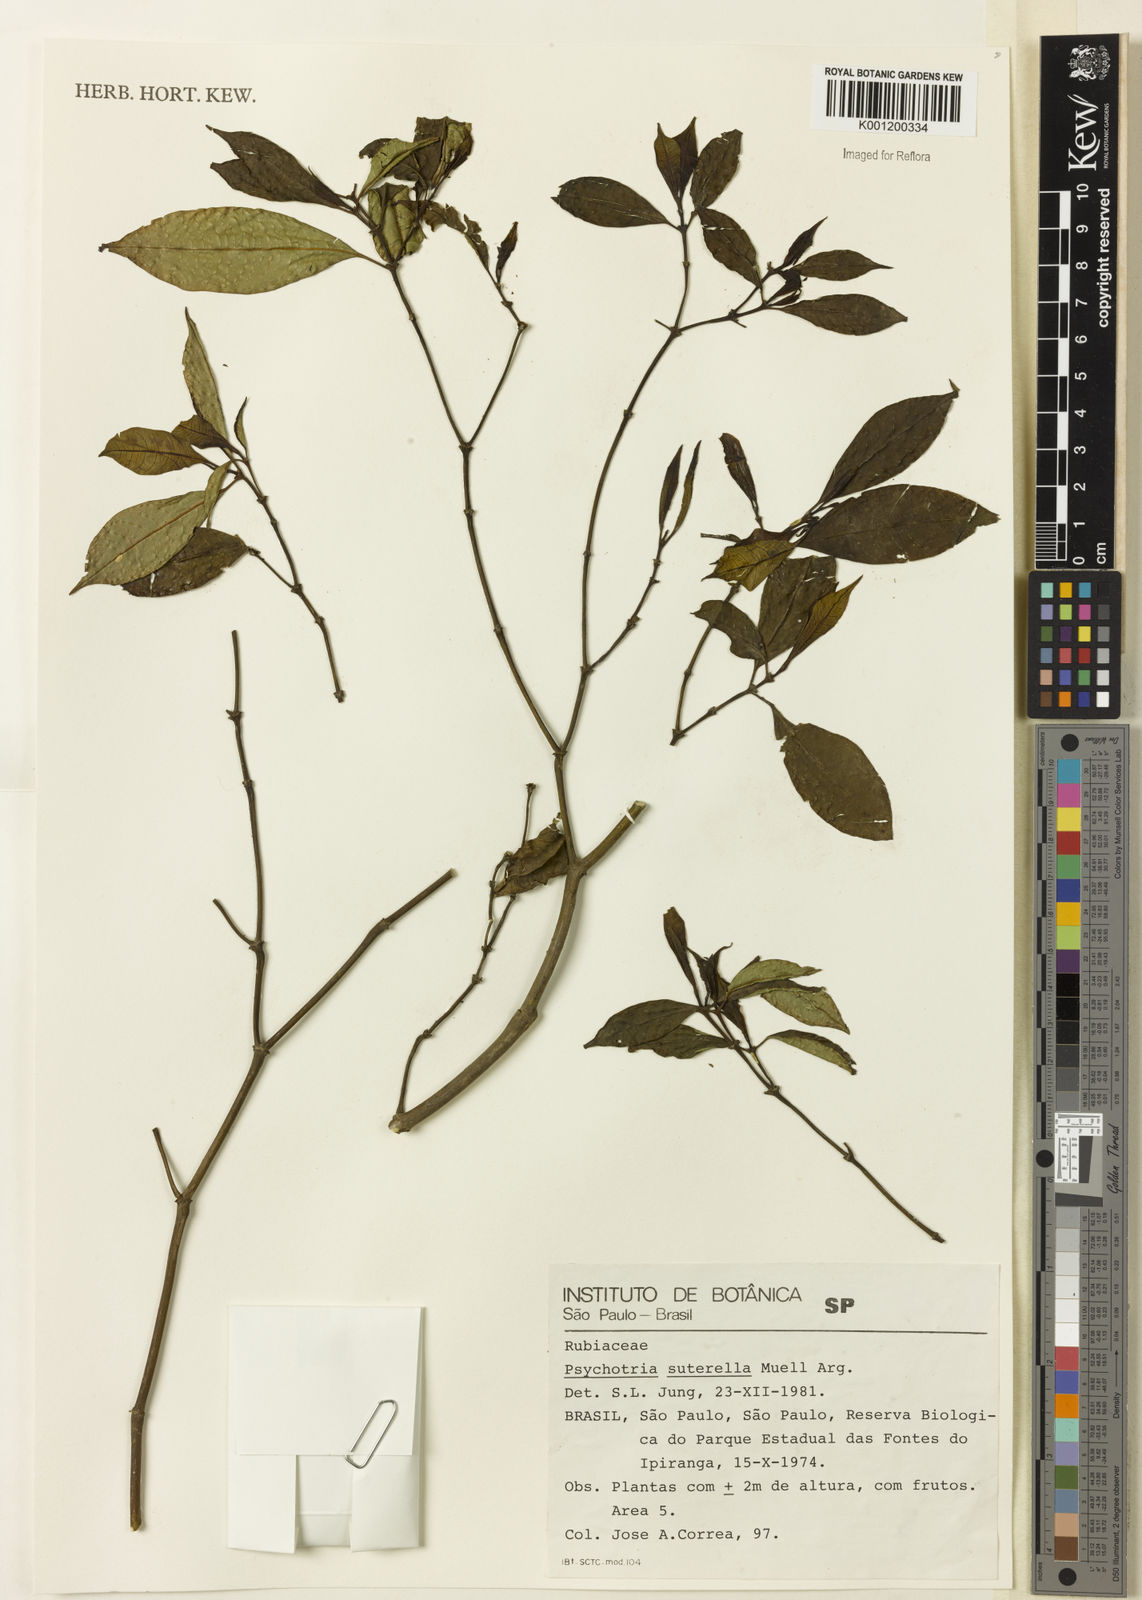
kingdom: Plantae
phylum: Tracheophyta
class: Magnoliopsida
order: Gentianales
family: Rubiaceae
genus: Psychotria
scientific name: Psychotria
